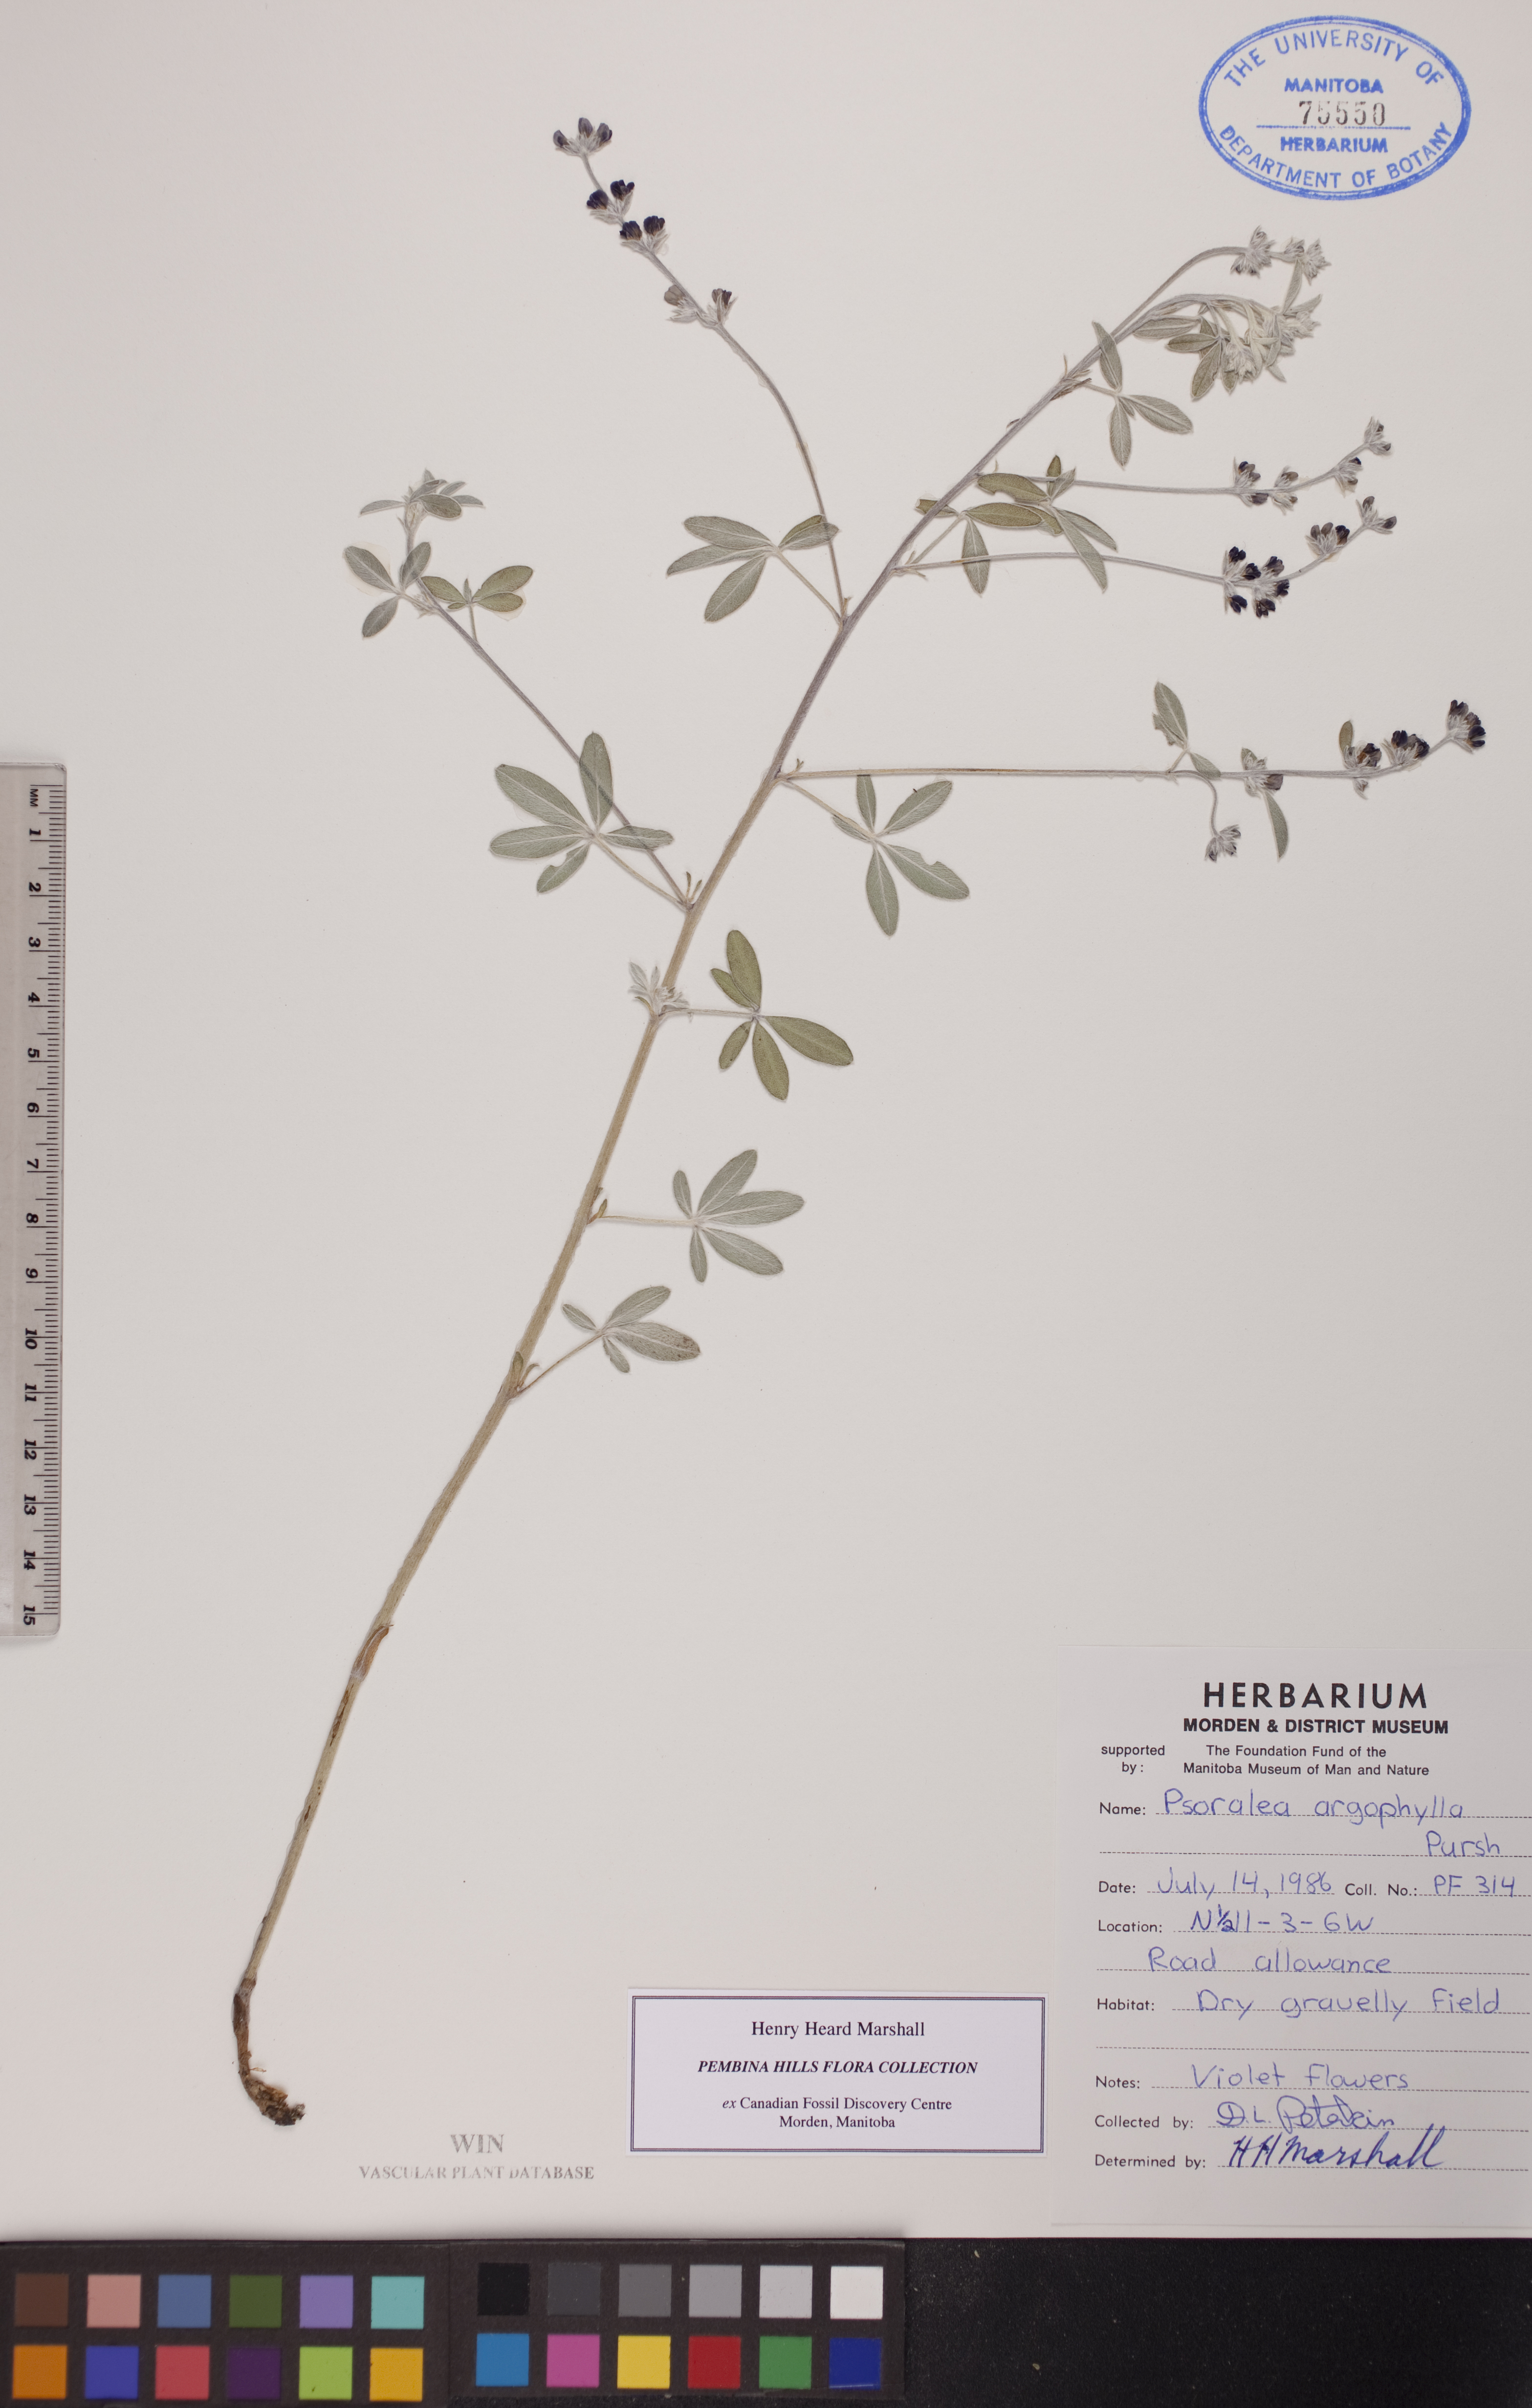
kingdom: Plantae
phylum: Tracheophyta
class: Magnoliopsida
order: Fabales
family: Fabaceae
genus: Pediomelum
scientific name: Pediomelum argophyllum
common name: Silver-leaved indian breadroot
